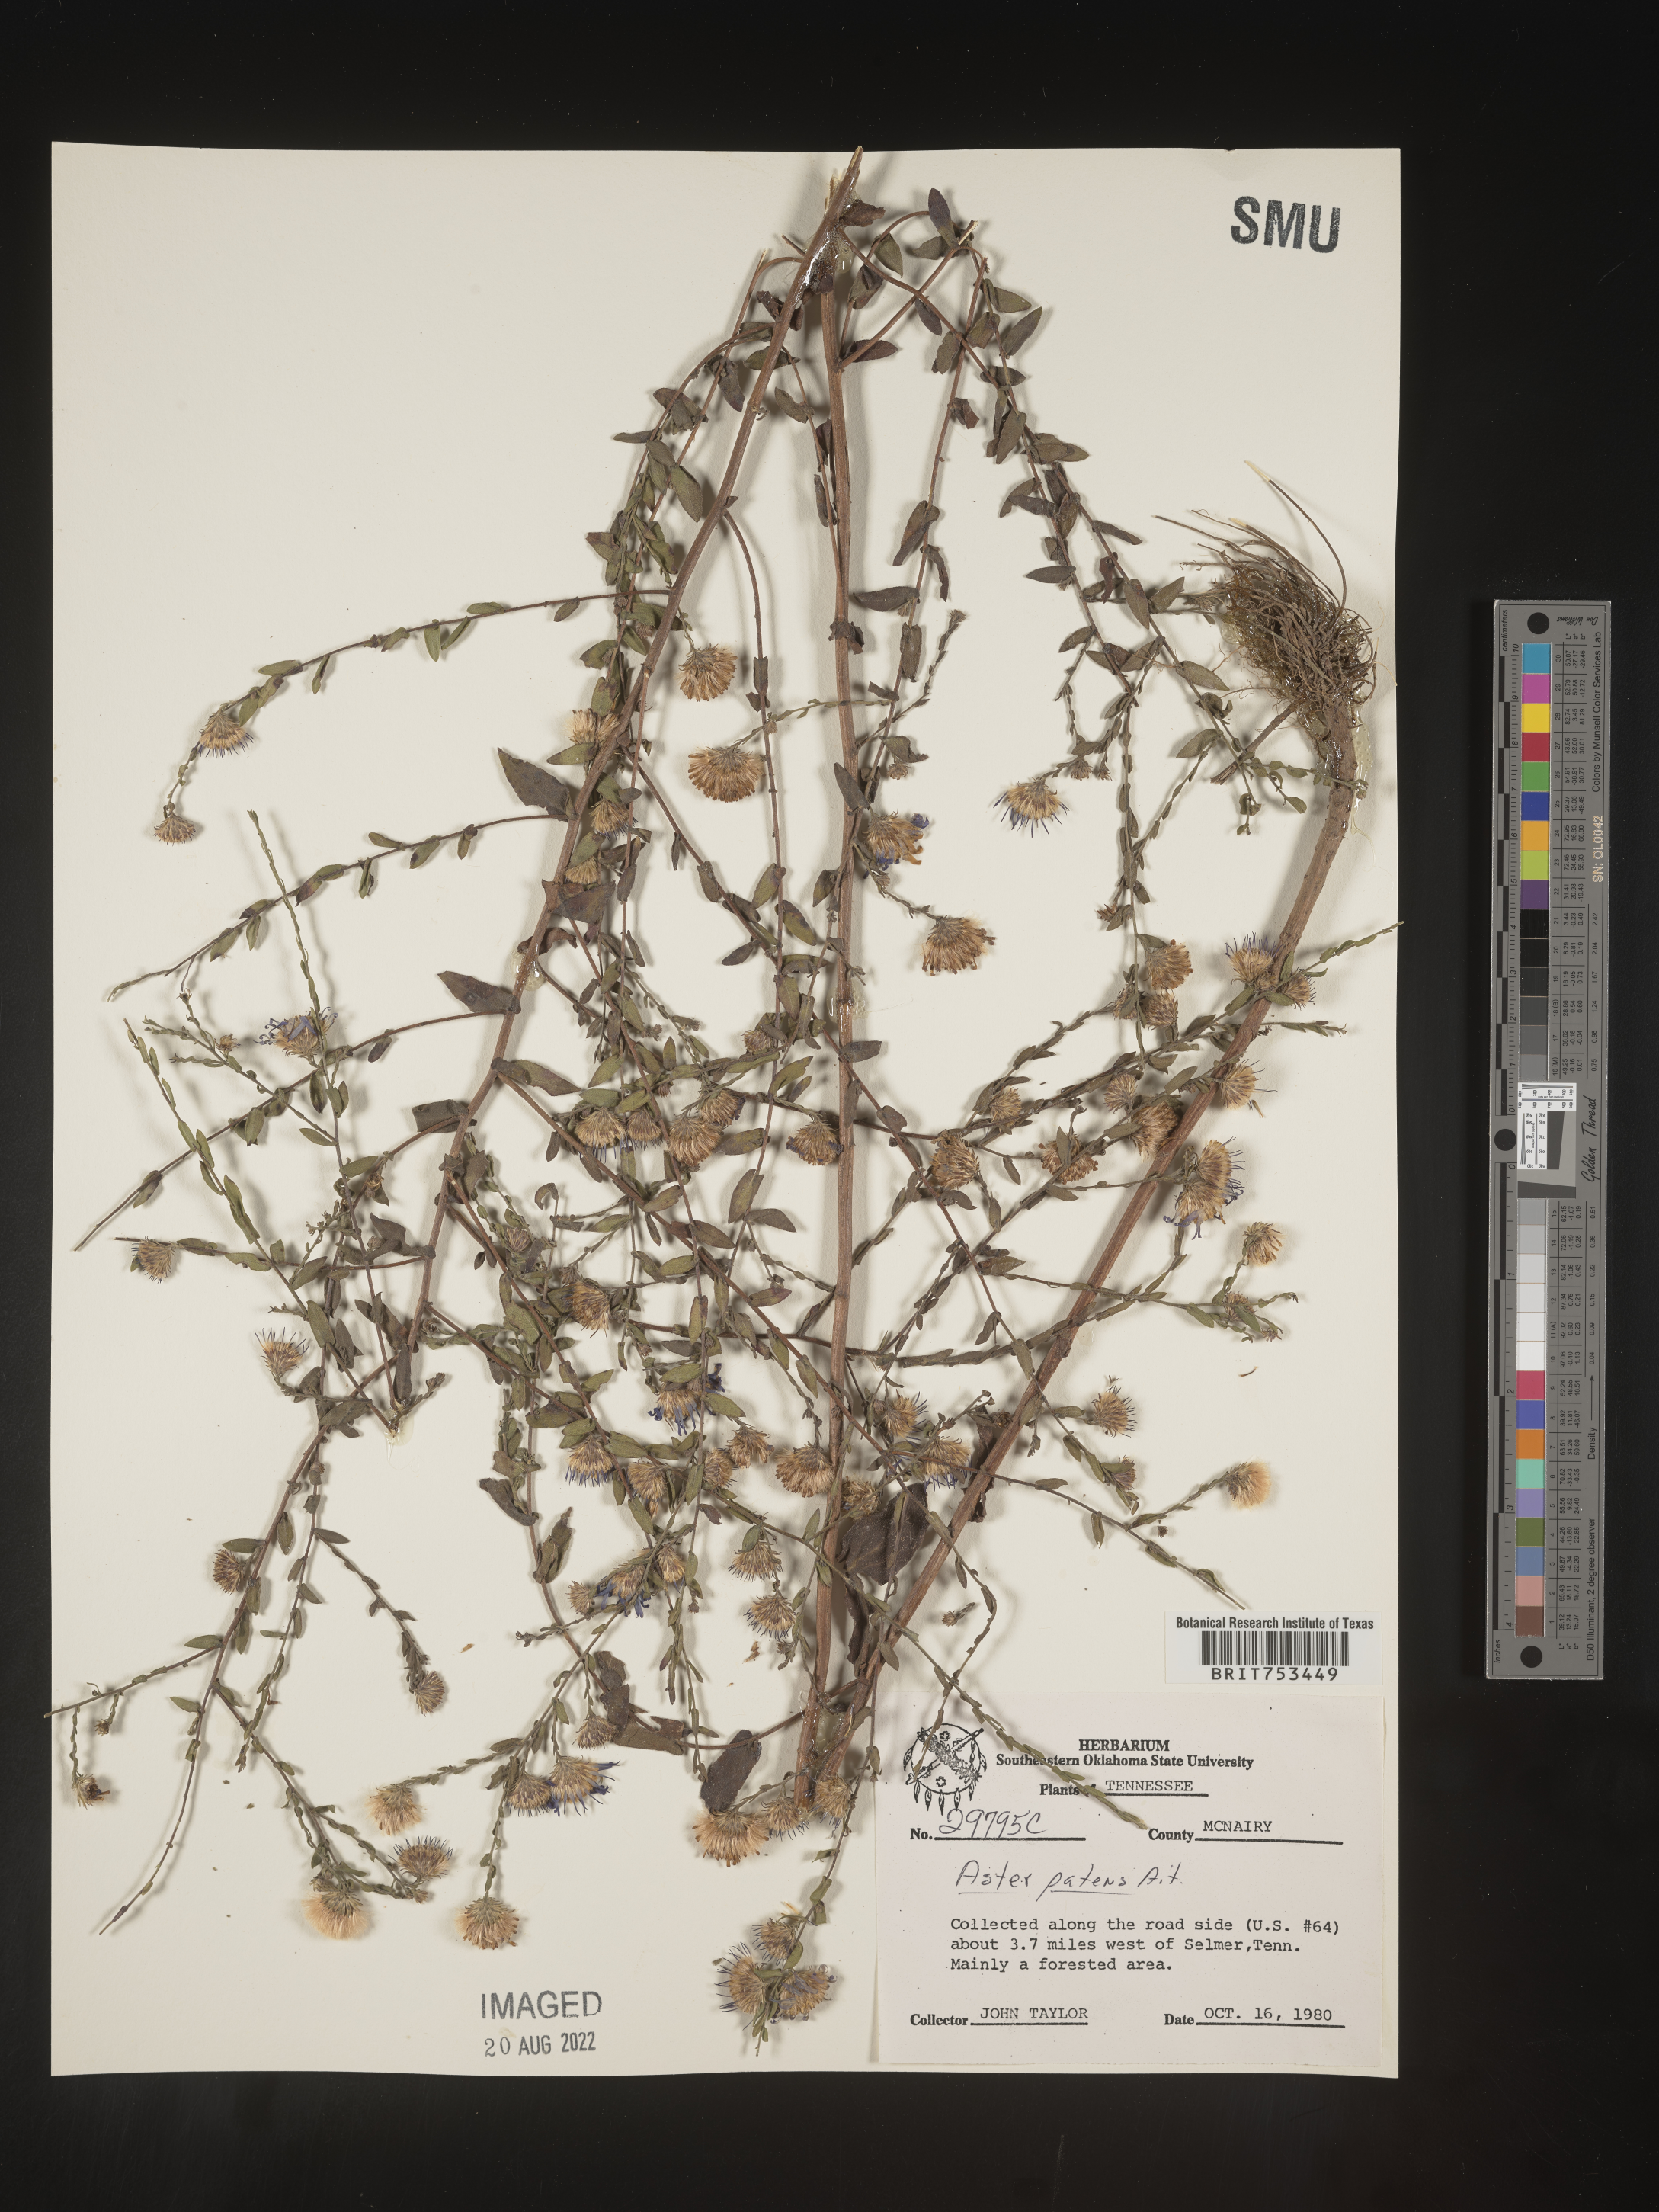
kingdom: Plantae
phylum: Tracheophyta
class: Magnoliopsida
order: Asterales
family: Asteraceae
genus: Symphyotrichum
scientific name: Symphyotrichum patens
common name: Late purple aster
